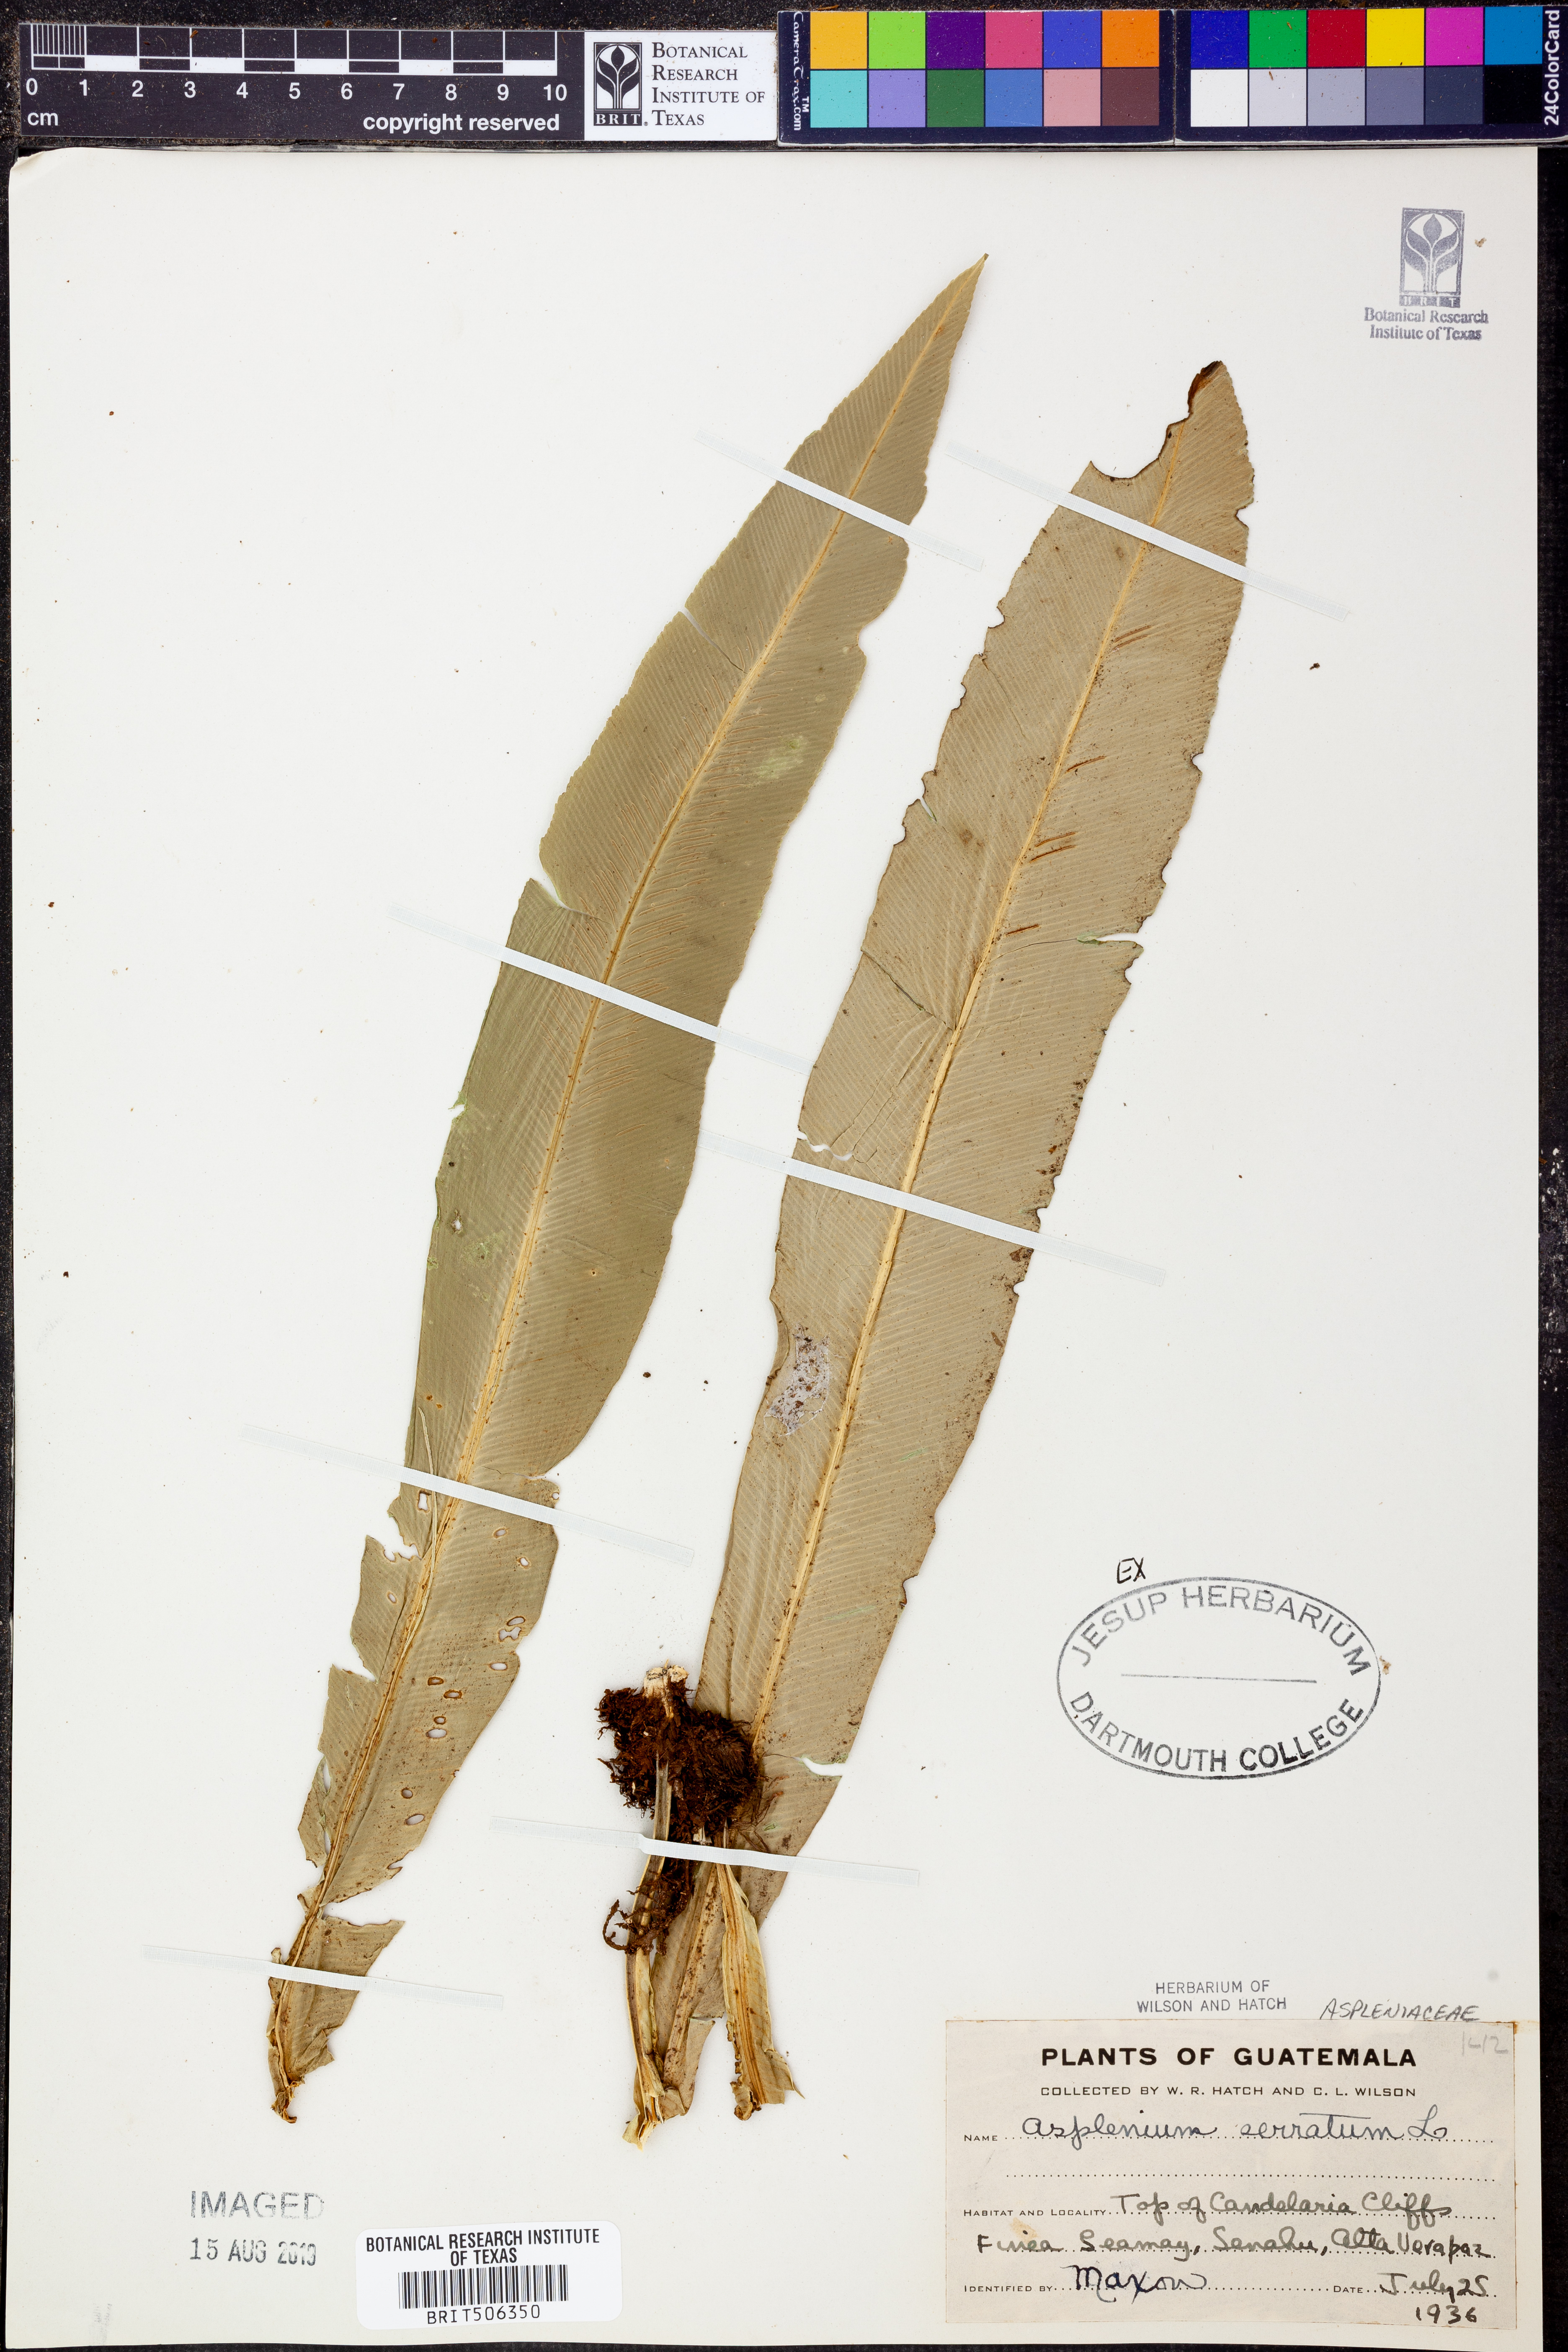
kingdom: Plantae
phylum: Tracheophyta
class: Polypodiopsida
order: Polypodiales
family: Aspleniaceae
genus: Asplenium
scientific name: Asplenium serratum
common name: Wild birdnest fern
